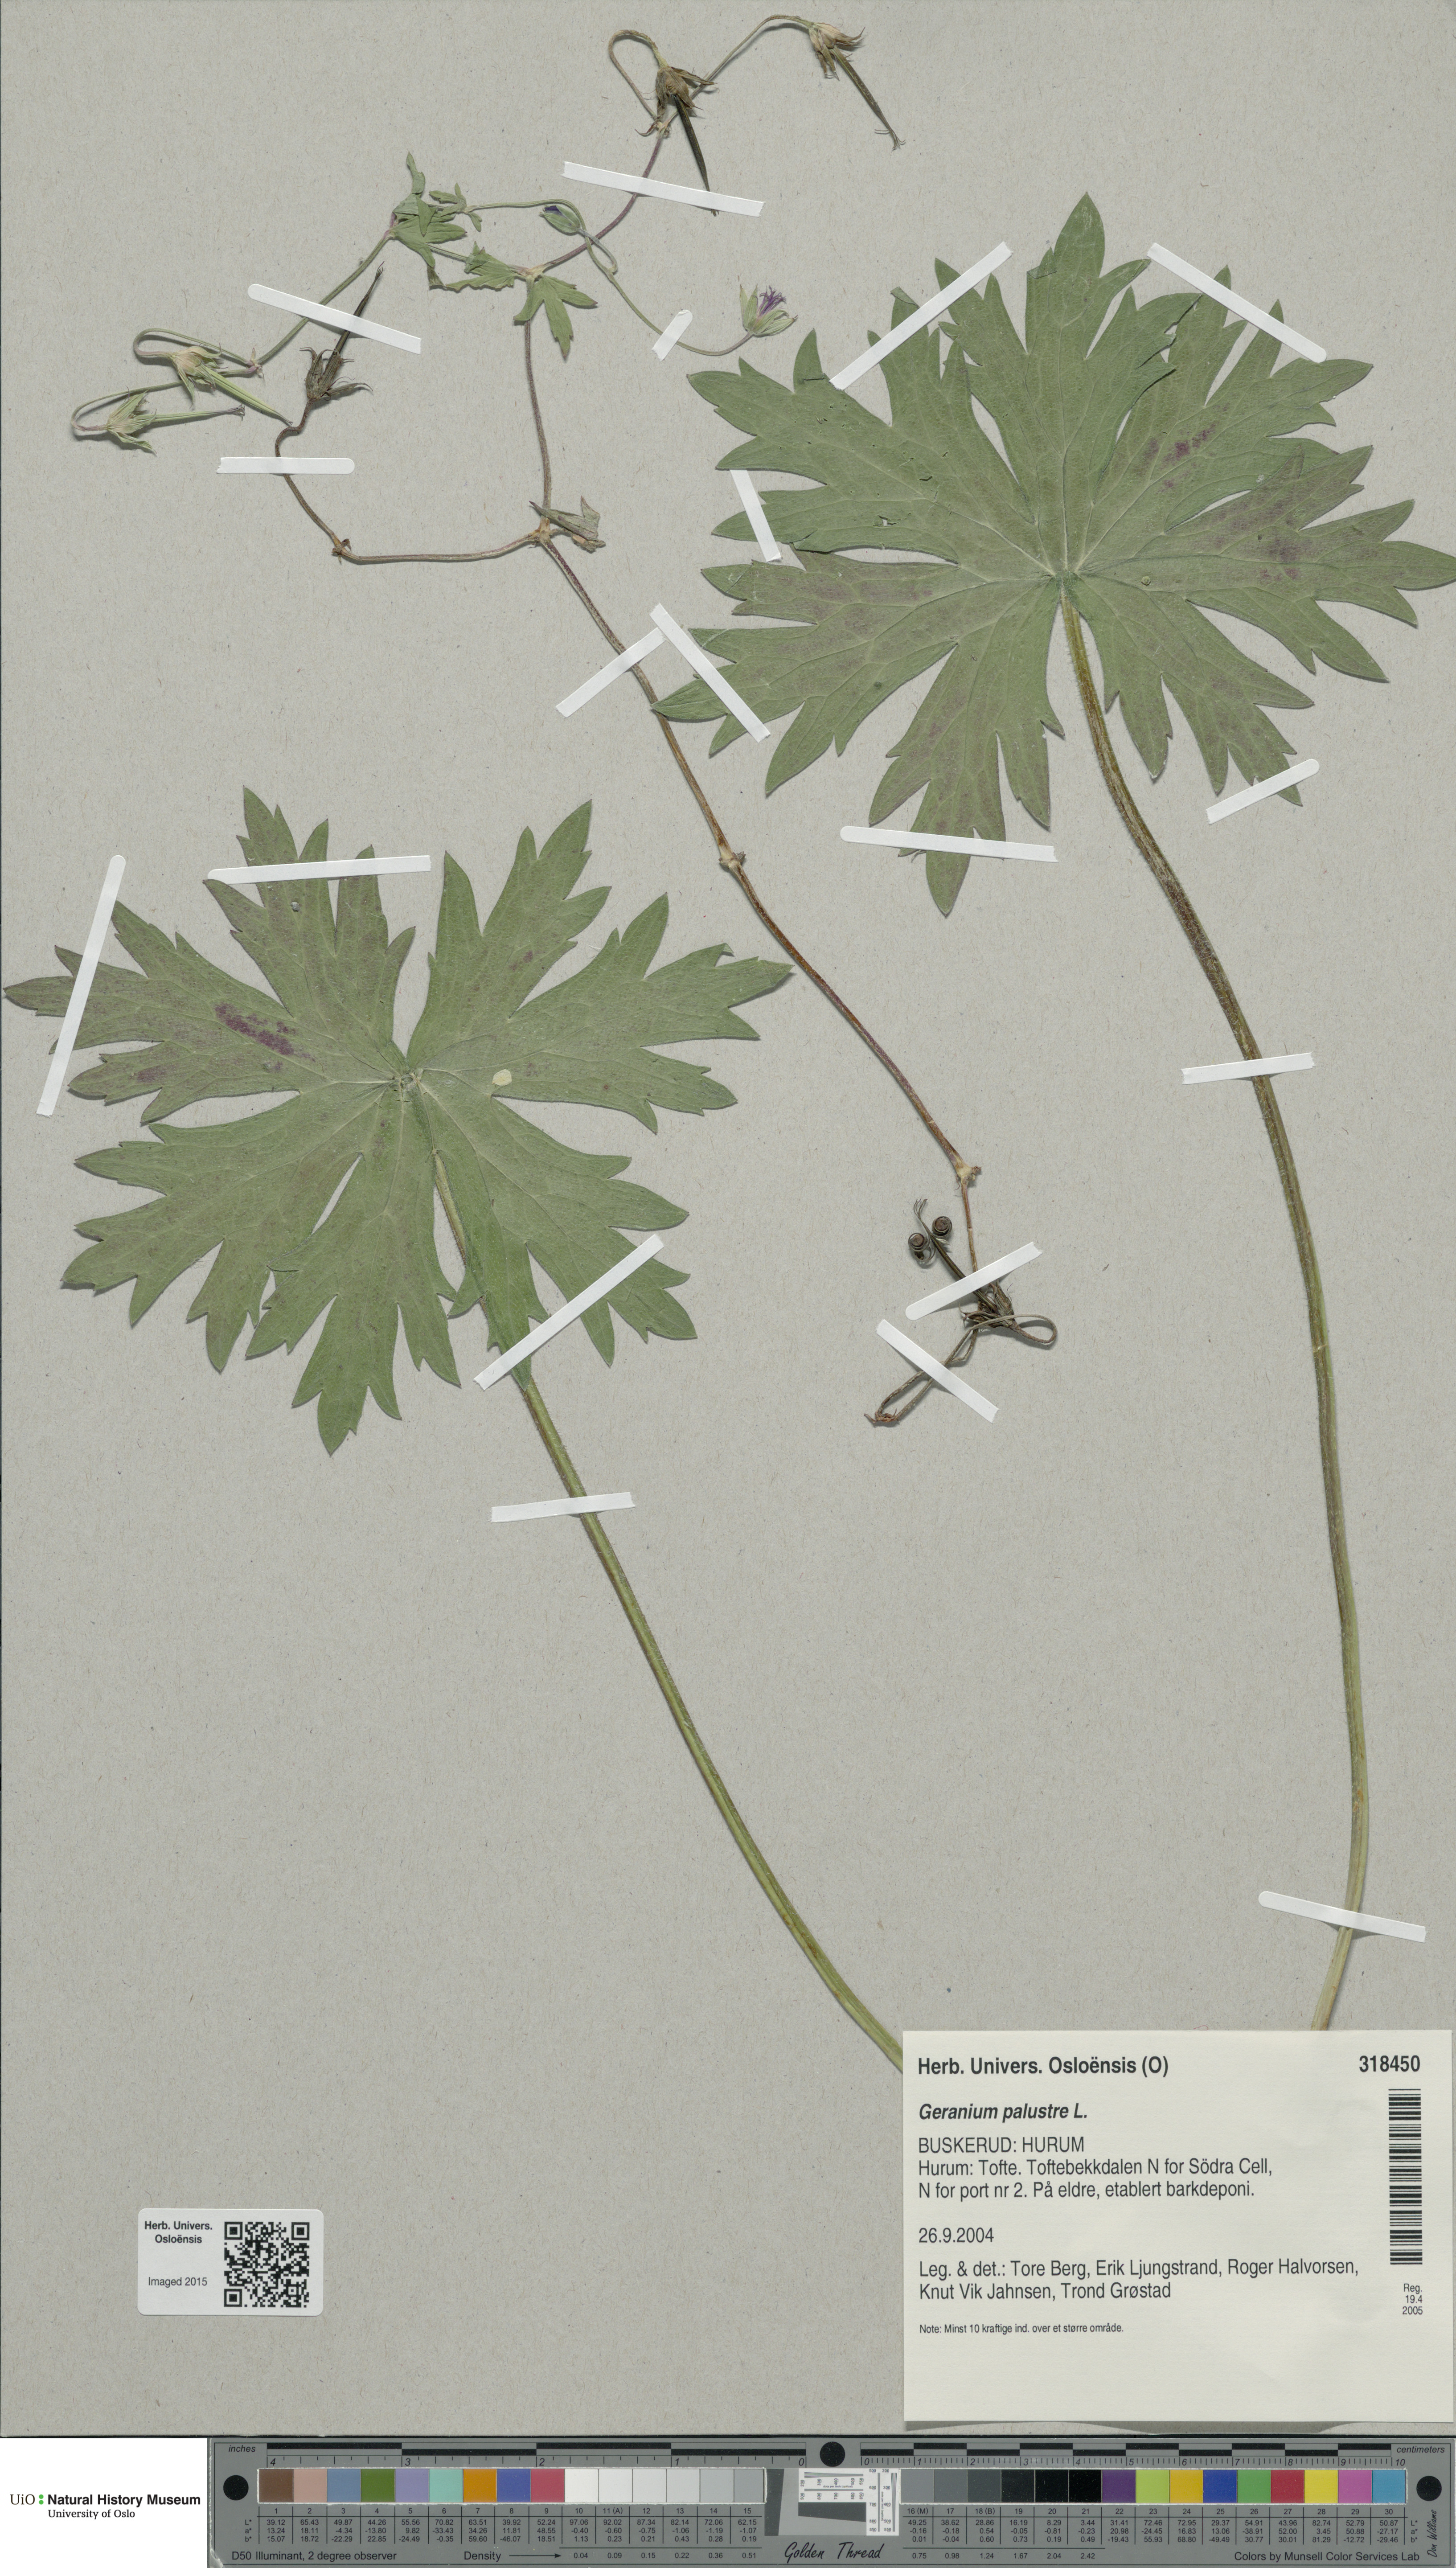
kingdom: Plantae
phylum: Tracheophyta
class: Magnoliopsida
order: Geraniales
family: Geraniaceae
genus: Geranium
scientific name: Geranium palustre
